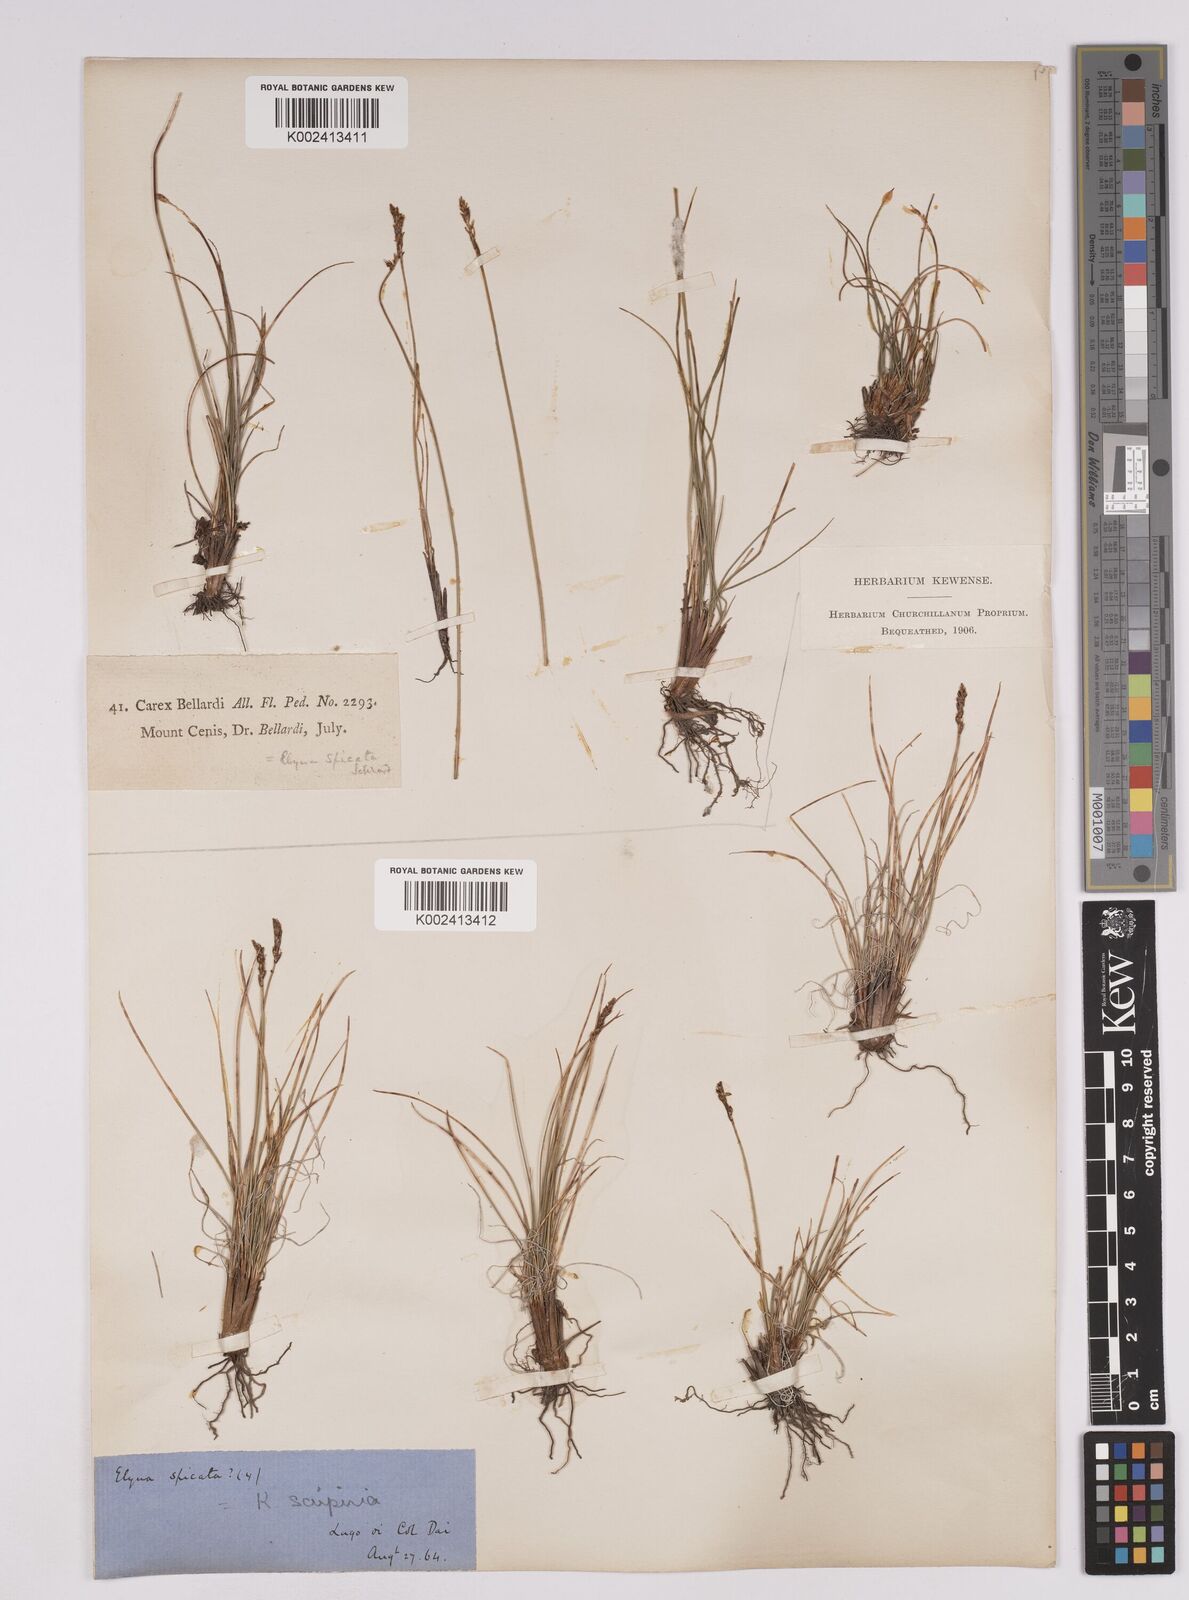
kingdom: Plantae
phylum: Tracheophyta
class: Liliopsida
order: Poales
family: Cyperaceae
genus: Carex
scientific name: Carex myosuroides
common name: Bellard's bog sedge
